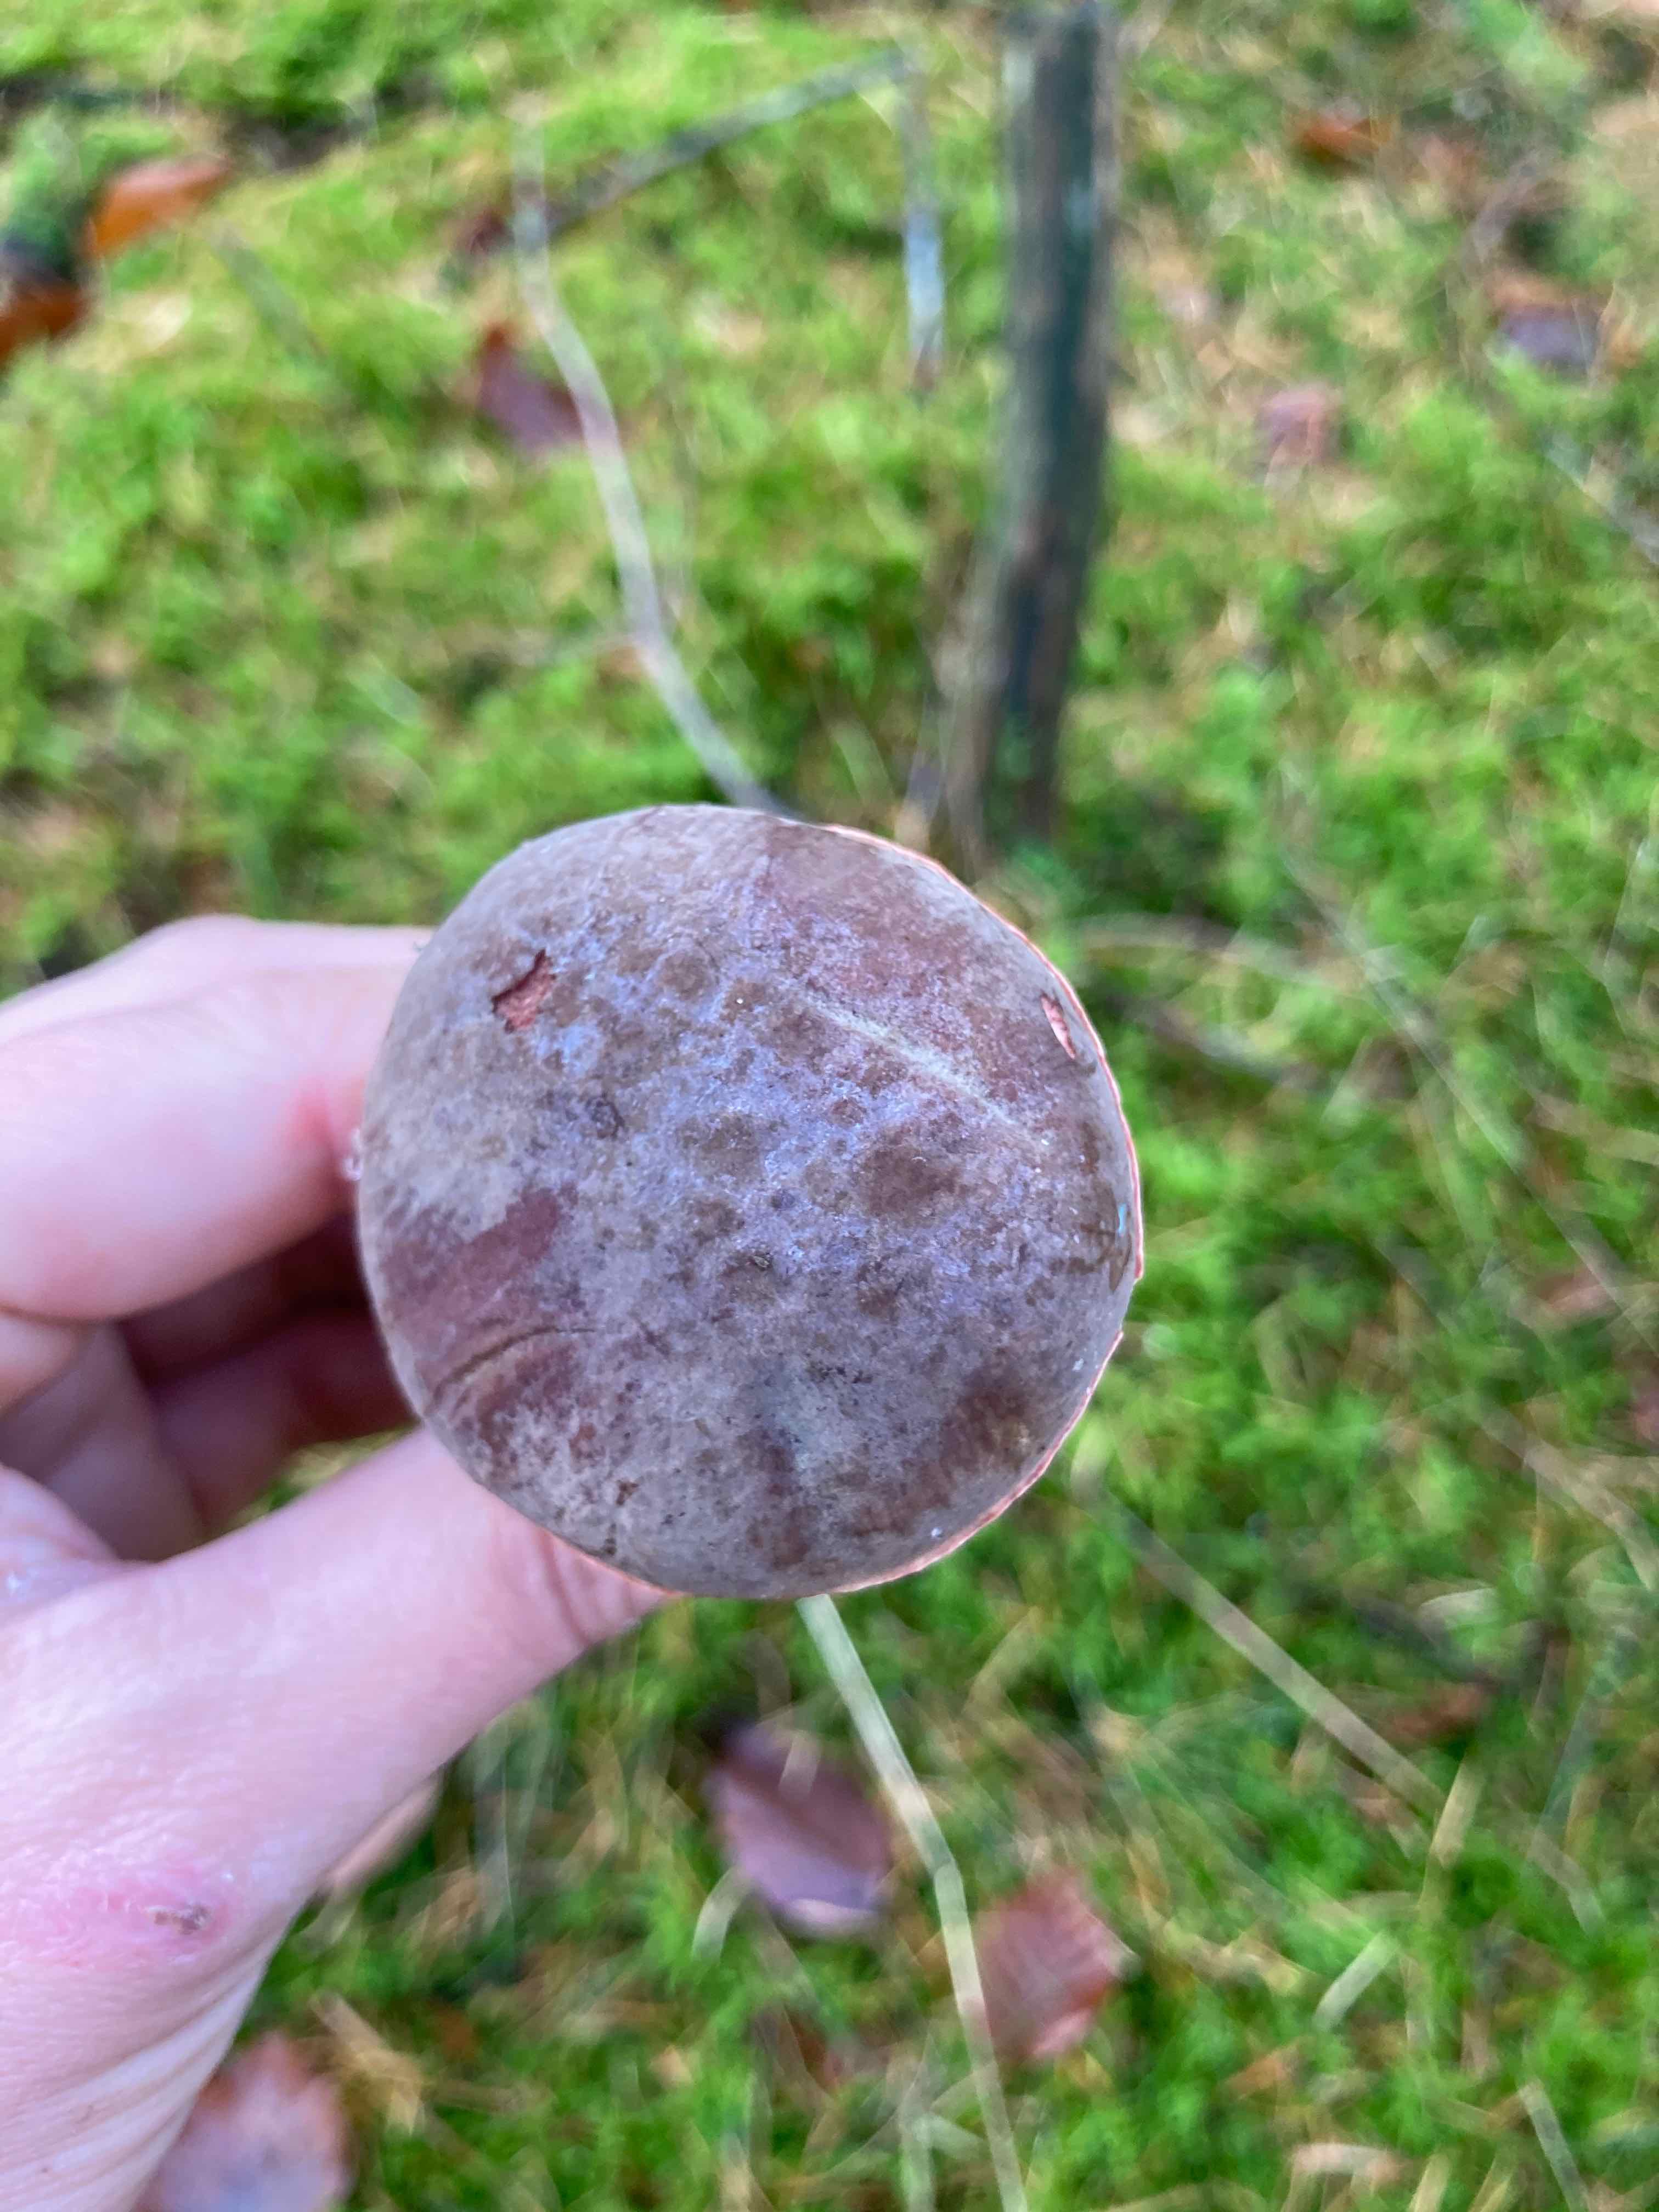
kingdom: Fungi
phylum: Basidiomycota
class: Agaricomycetes
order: Boletales
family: Boletaceae
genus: Xerocomellus
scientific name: Xerocomellus pruinatus
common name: dugget rørhat
